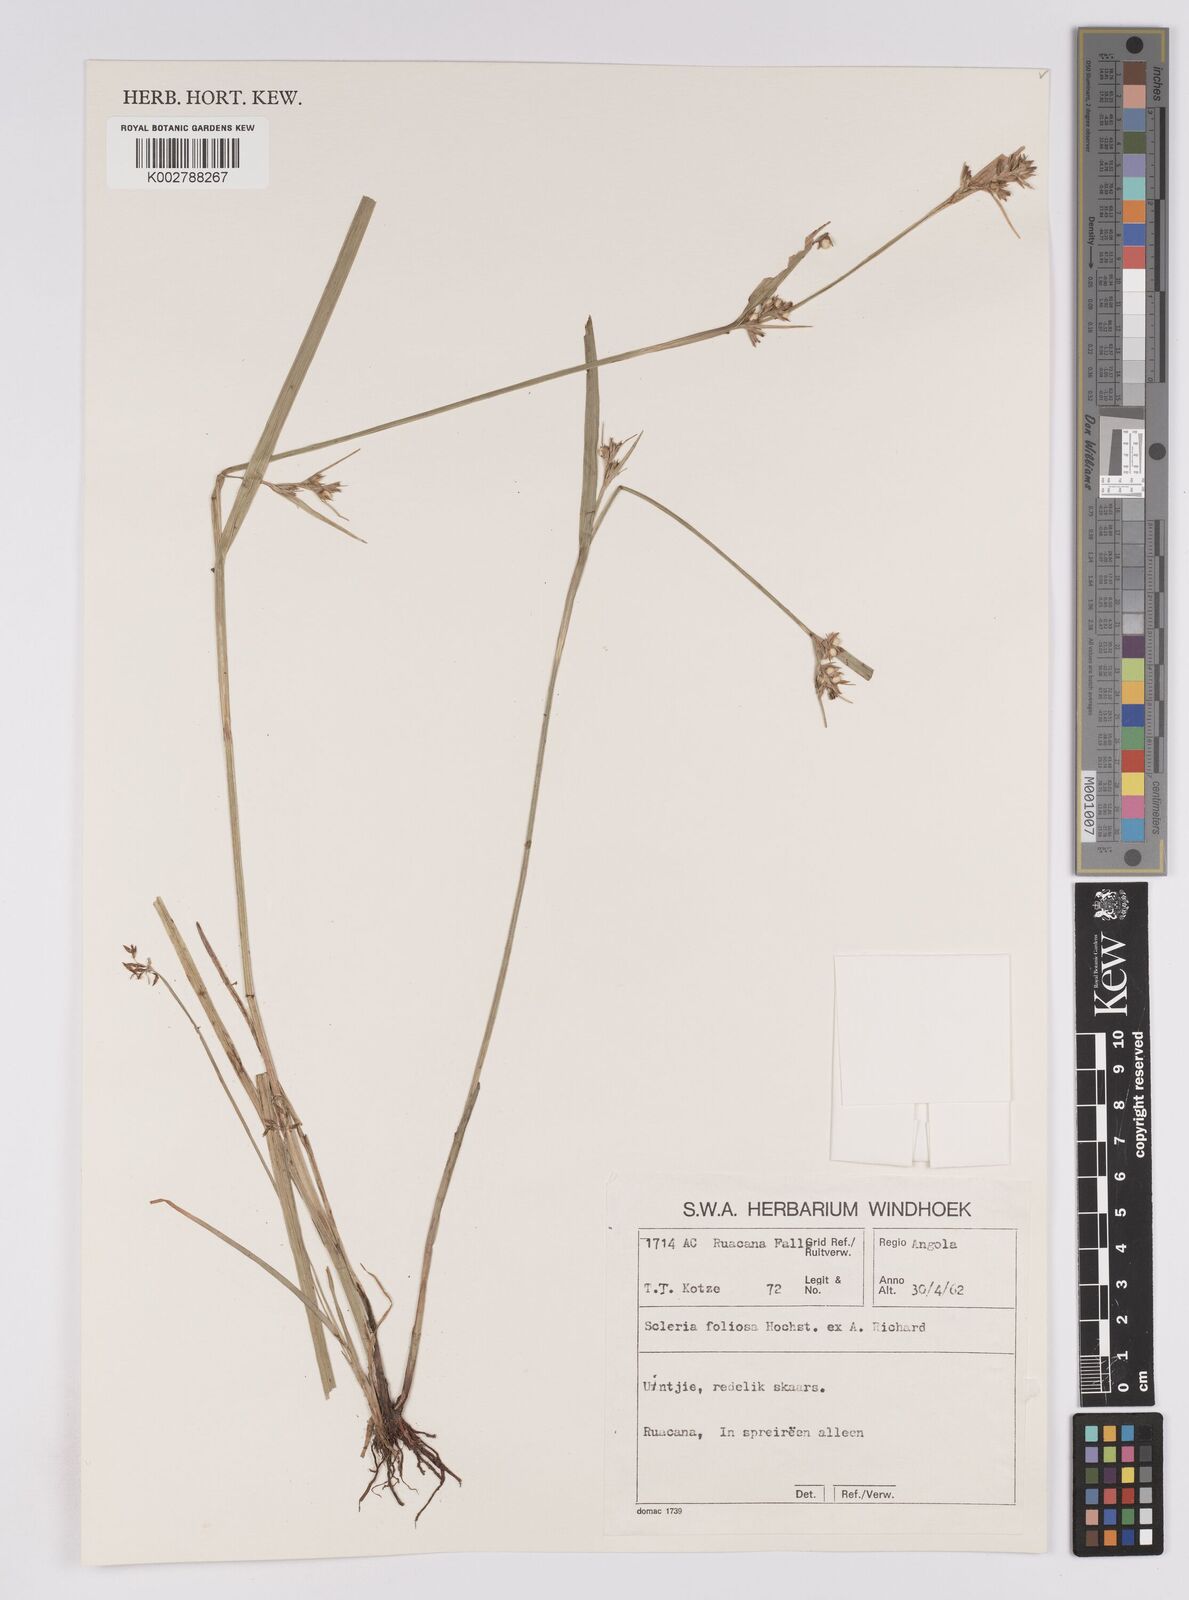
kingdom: Plantae
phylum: Tracheophyta
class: Liliopsida
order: Poales
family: Cyperaceae
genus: Scleria
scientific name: Scleria foliosa
